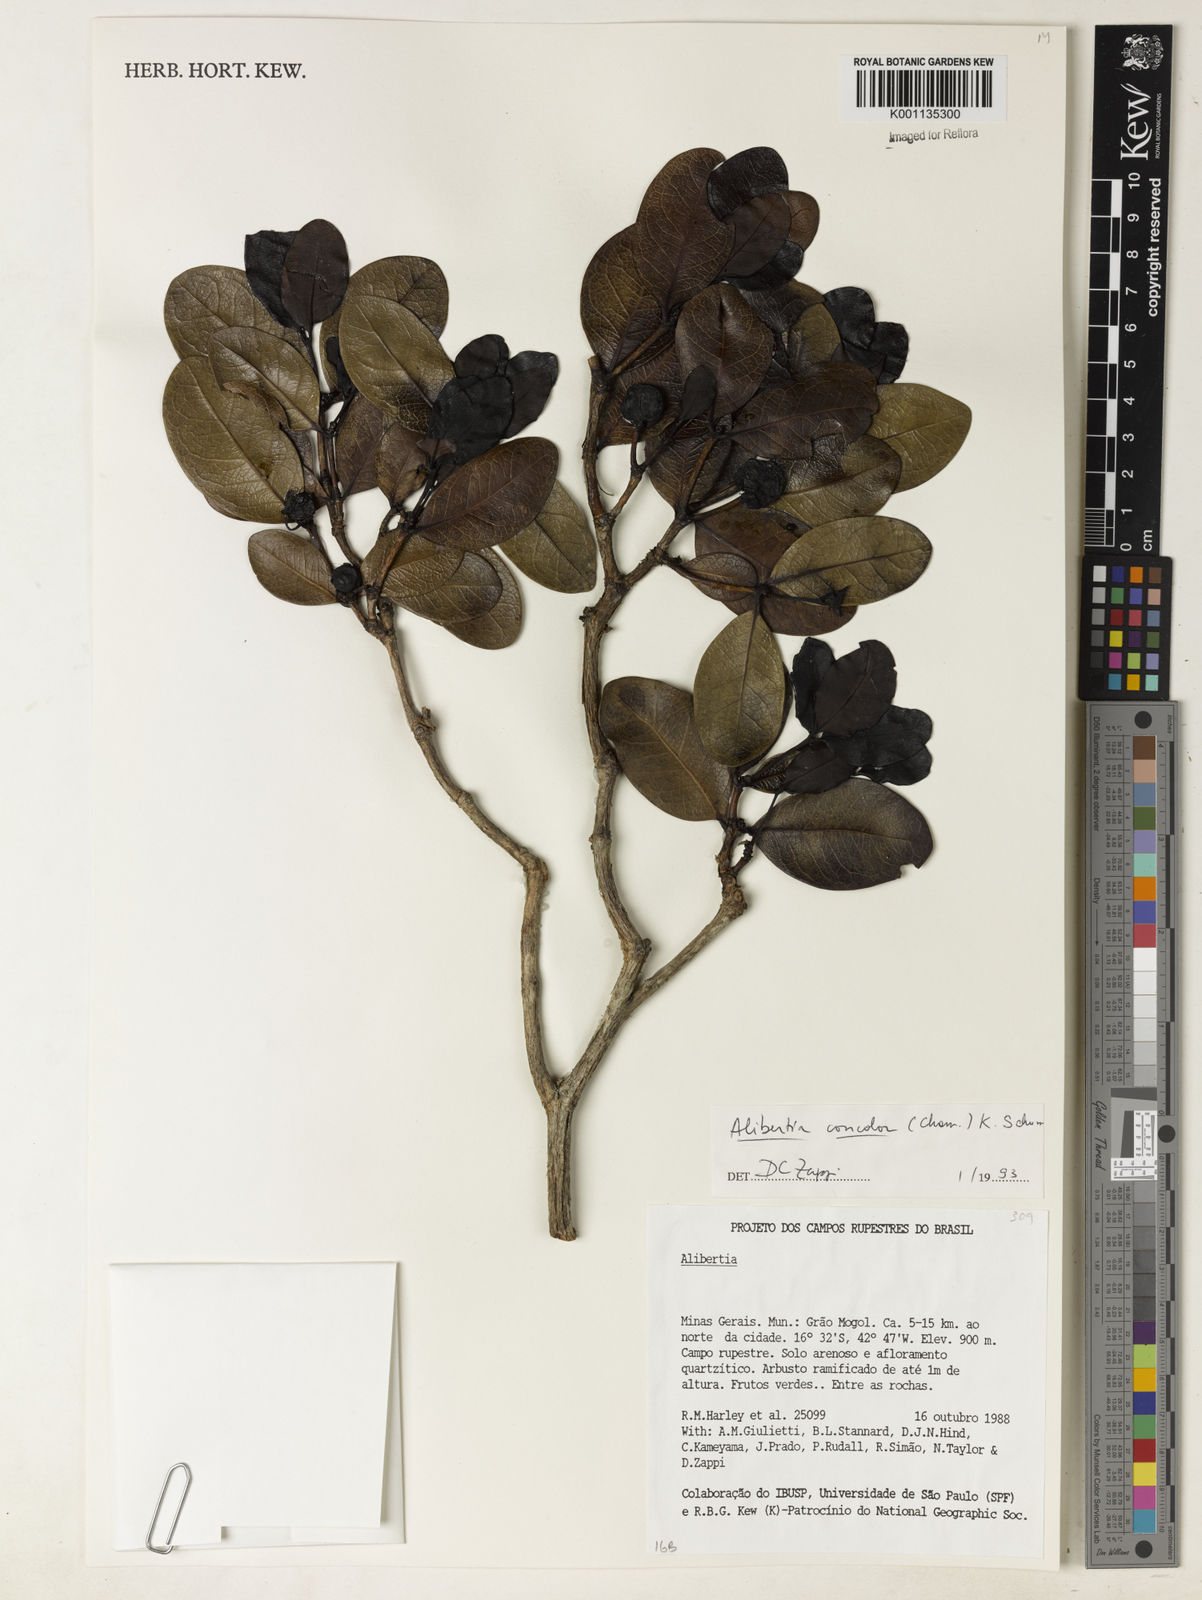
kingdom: Plantae
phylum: Tracheophyta
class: Magnoliopsida
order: Gentianales
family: Rubiaceae
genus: Cordiera
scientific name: Cordiera concolor
